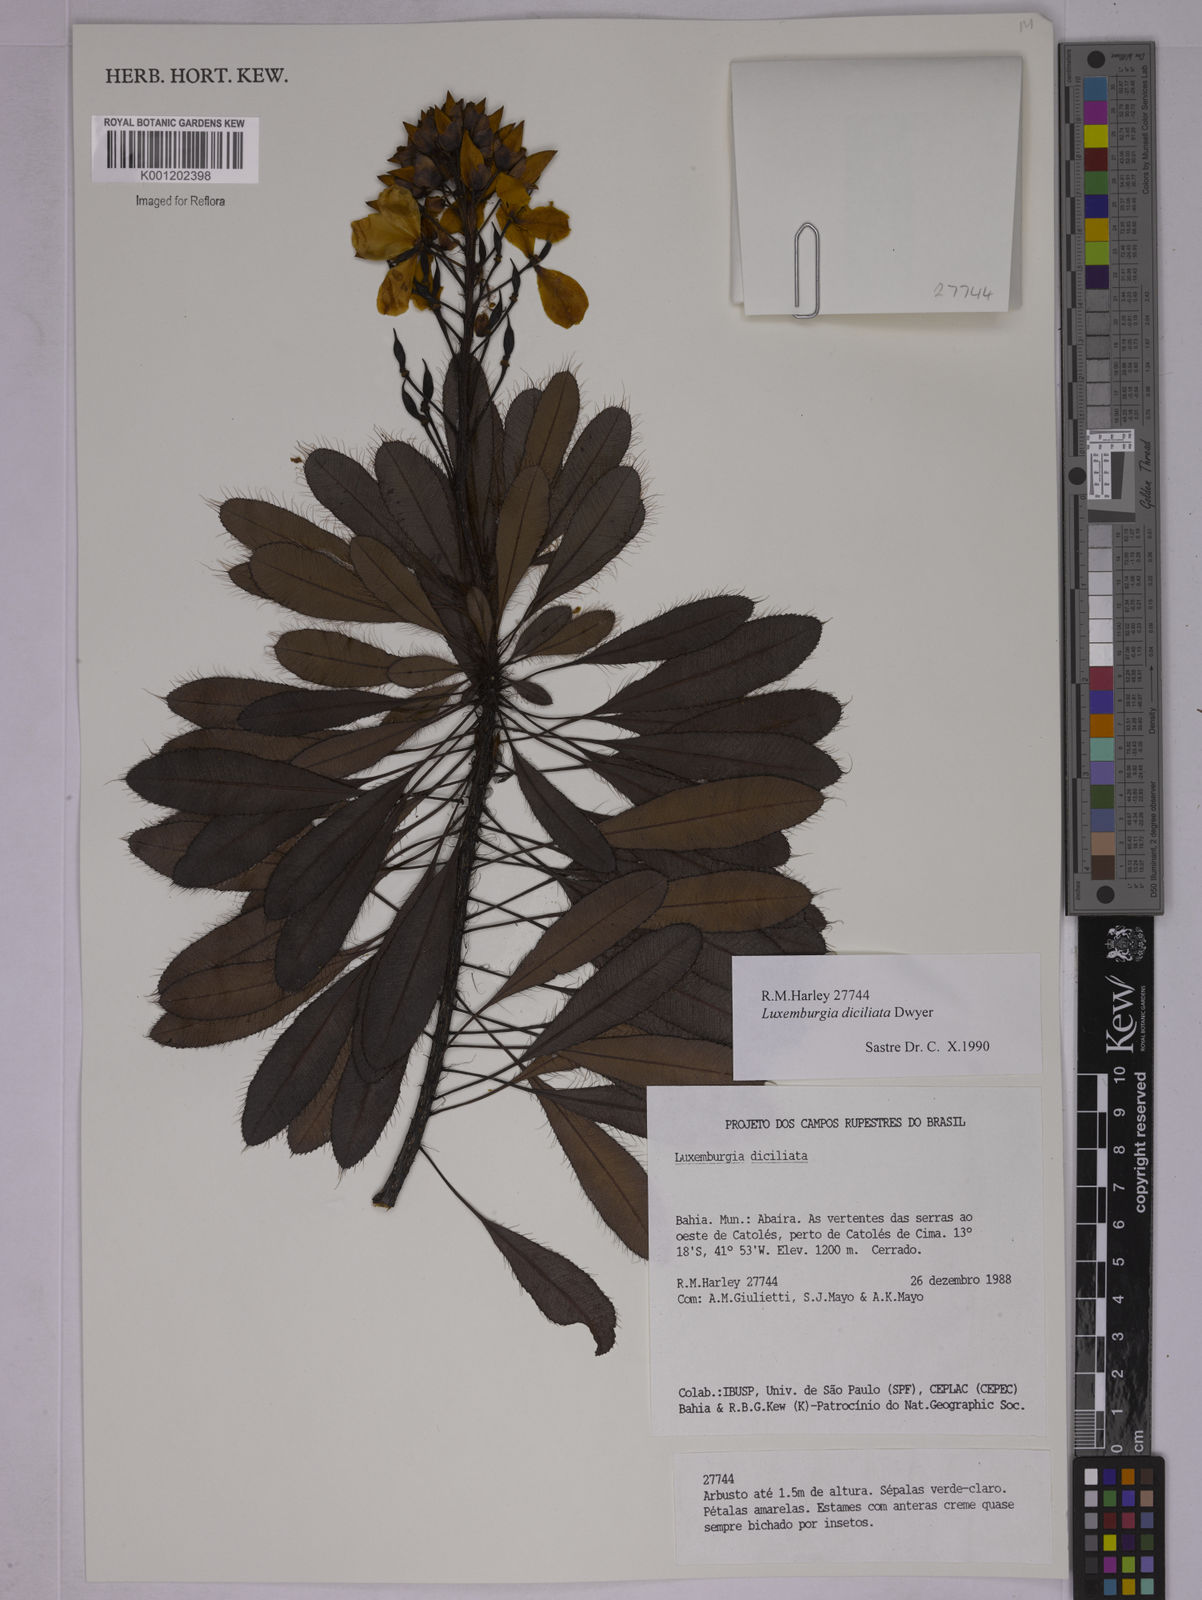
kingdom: Plantae
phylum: Tracheophyta
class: Magnoliopsida
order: Malpighiales
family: Ochnaceae
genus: Luxemburgia
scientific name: Luxemburgia diciliata
